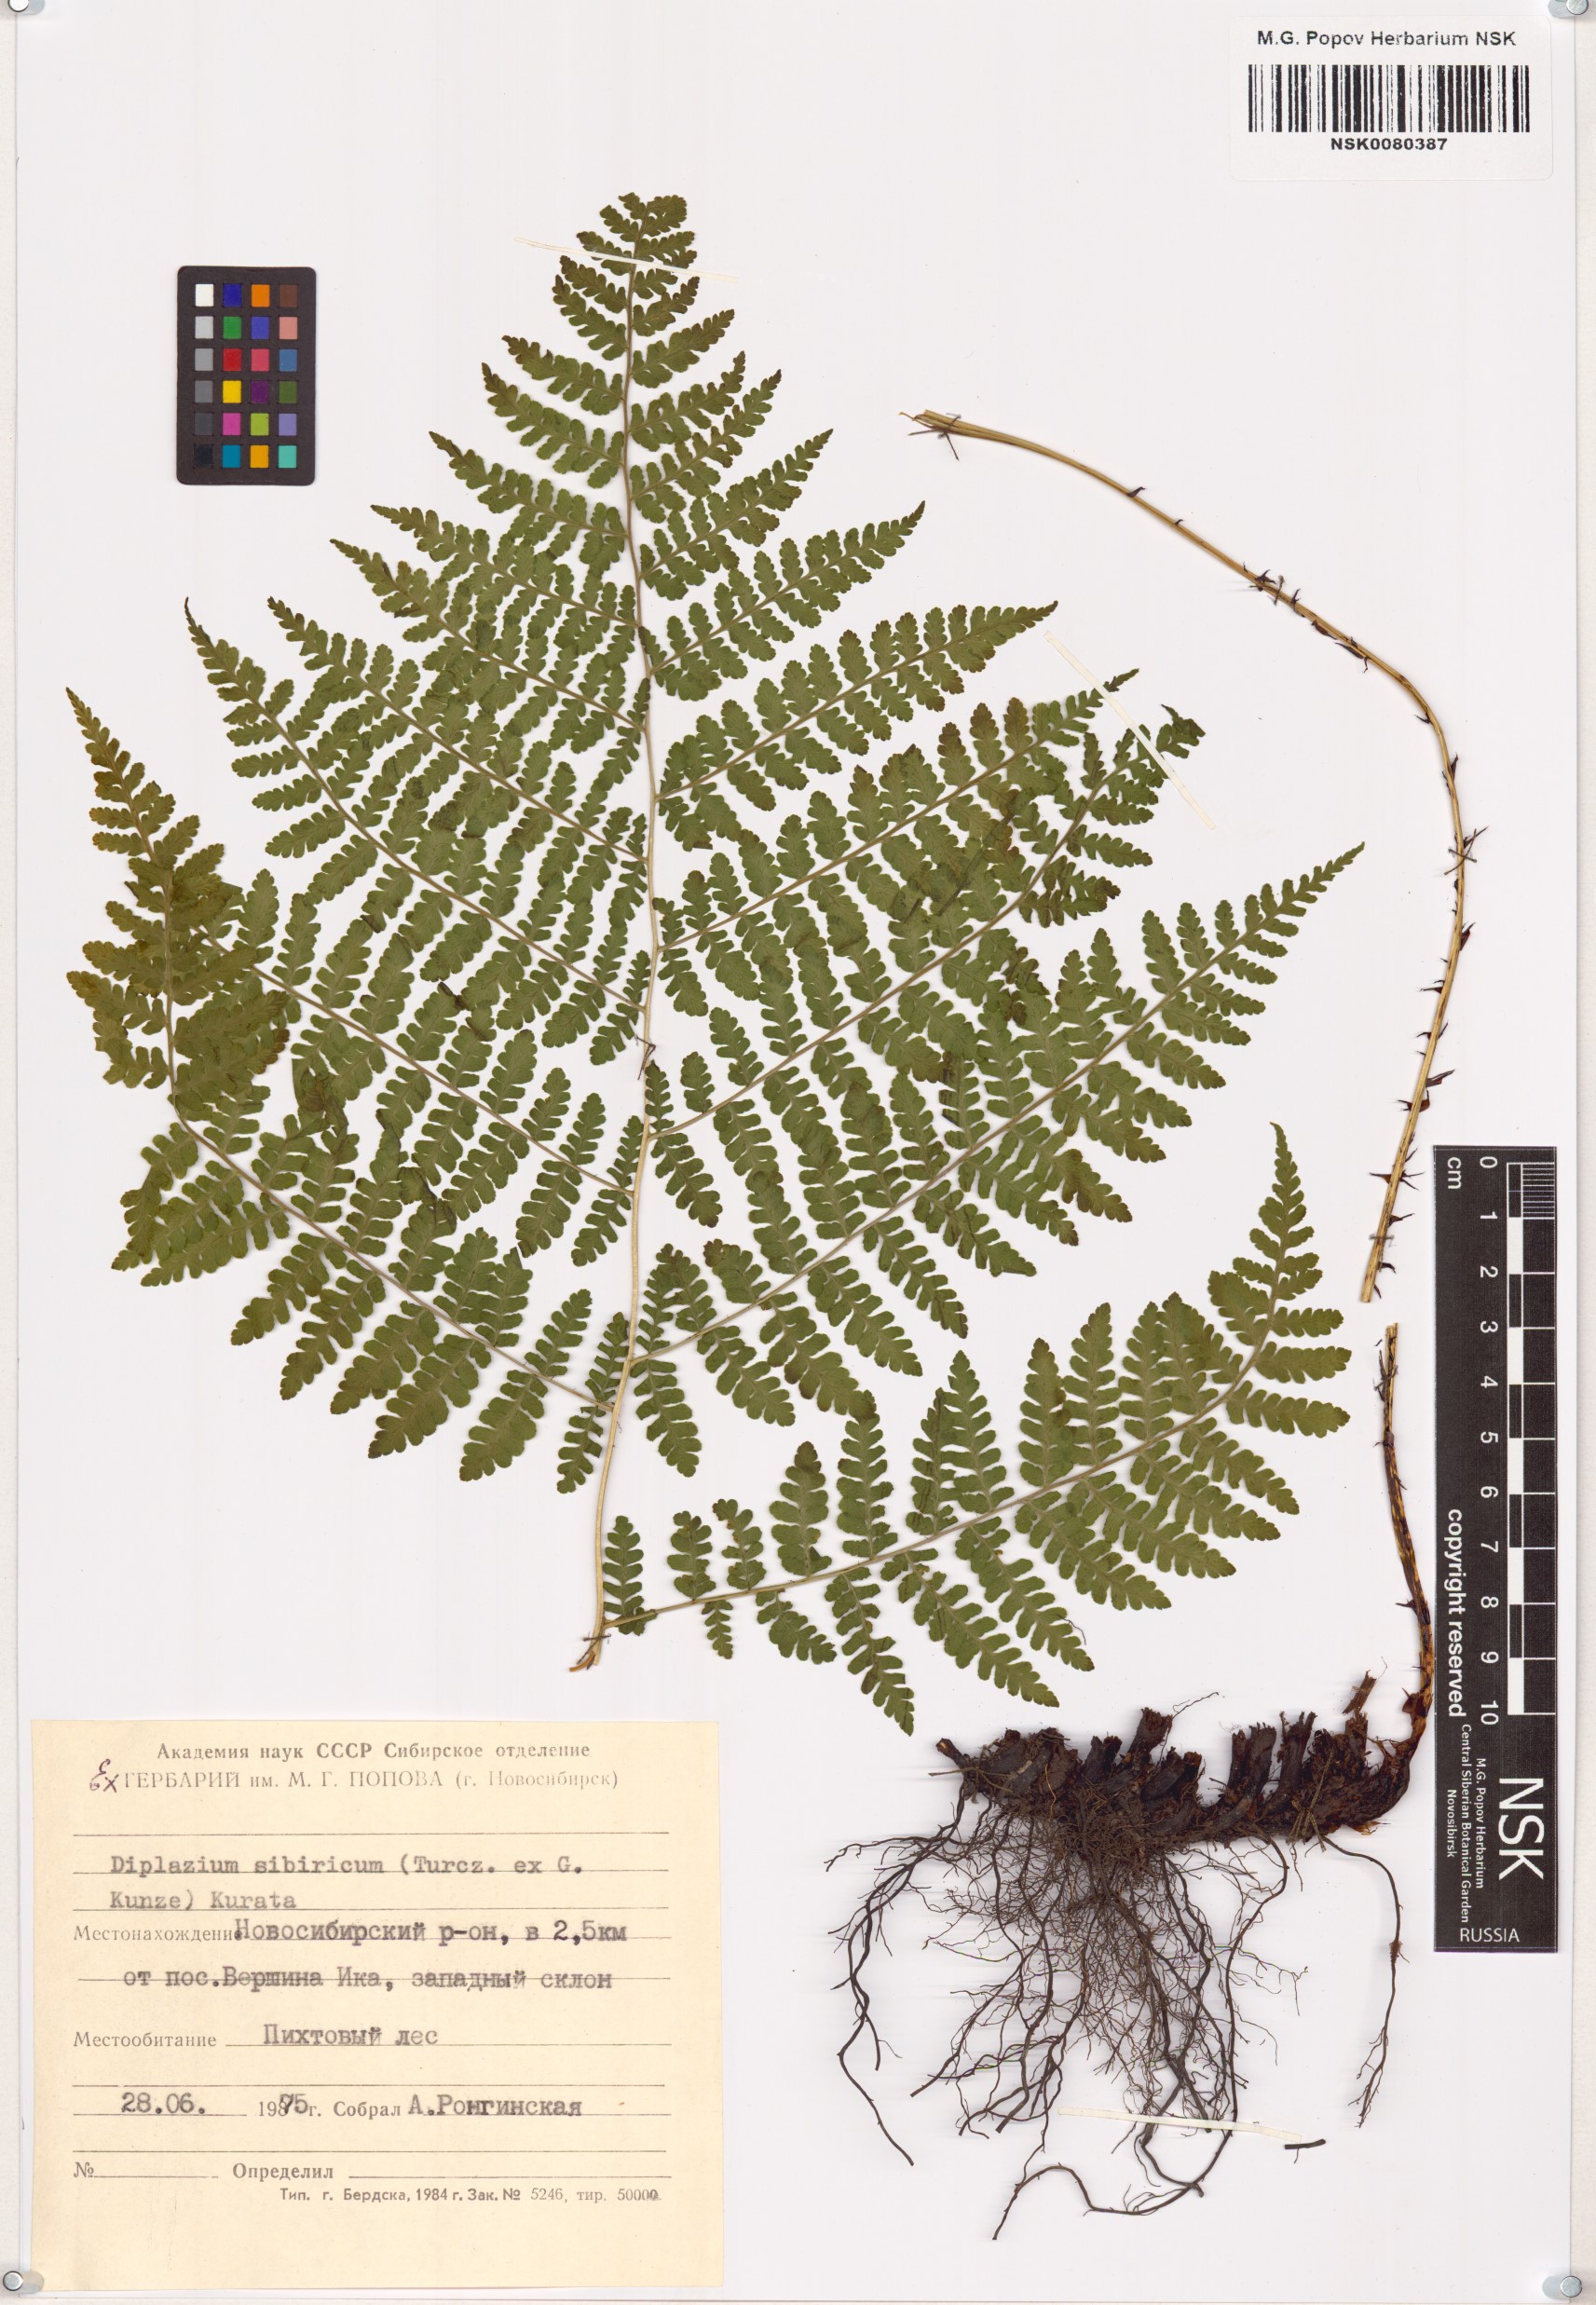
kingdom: Plantae
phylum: Tracheophyta
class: Polypodiopsida
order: Polypodiales
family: Athyriaceae
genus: Diplazium
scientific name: Diplazium sibiricum
